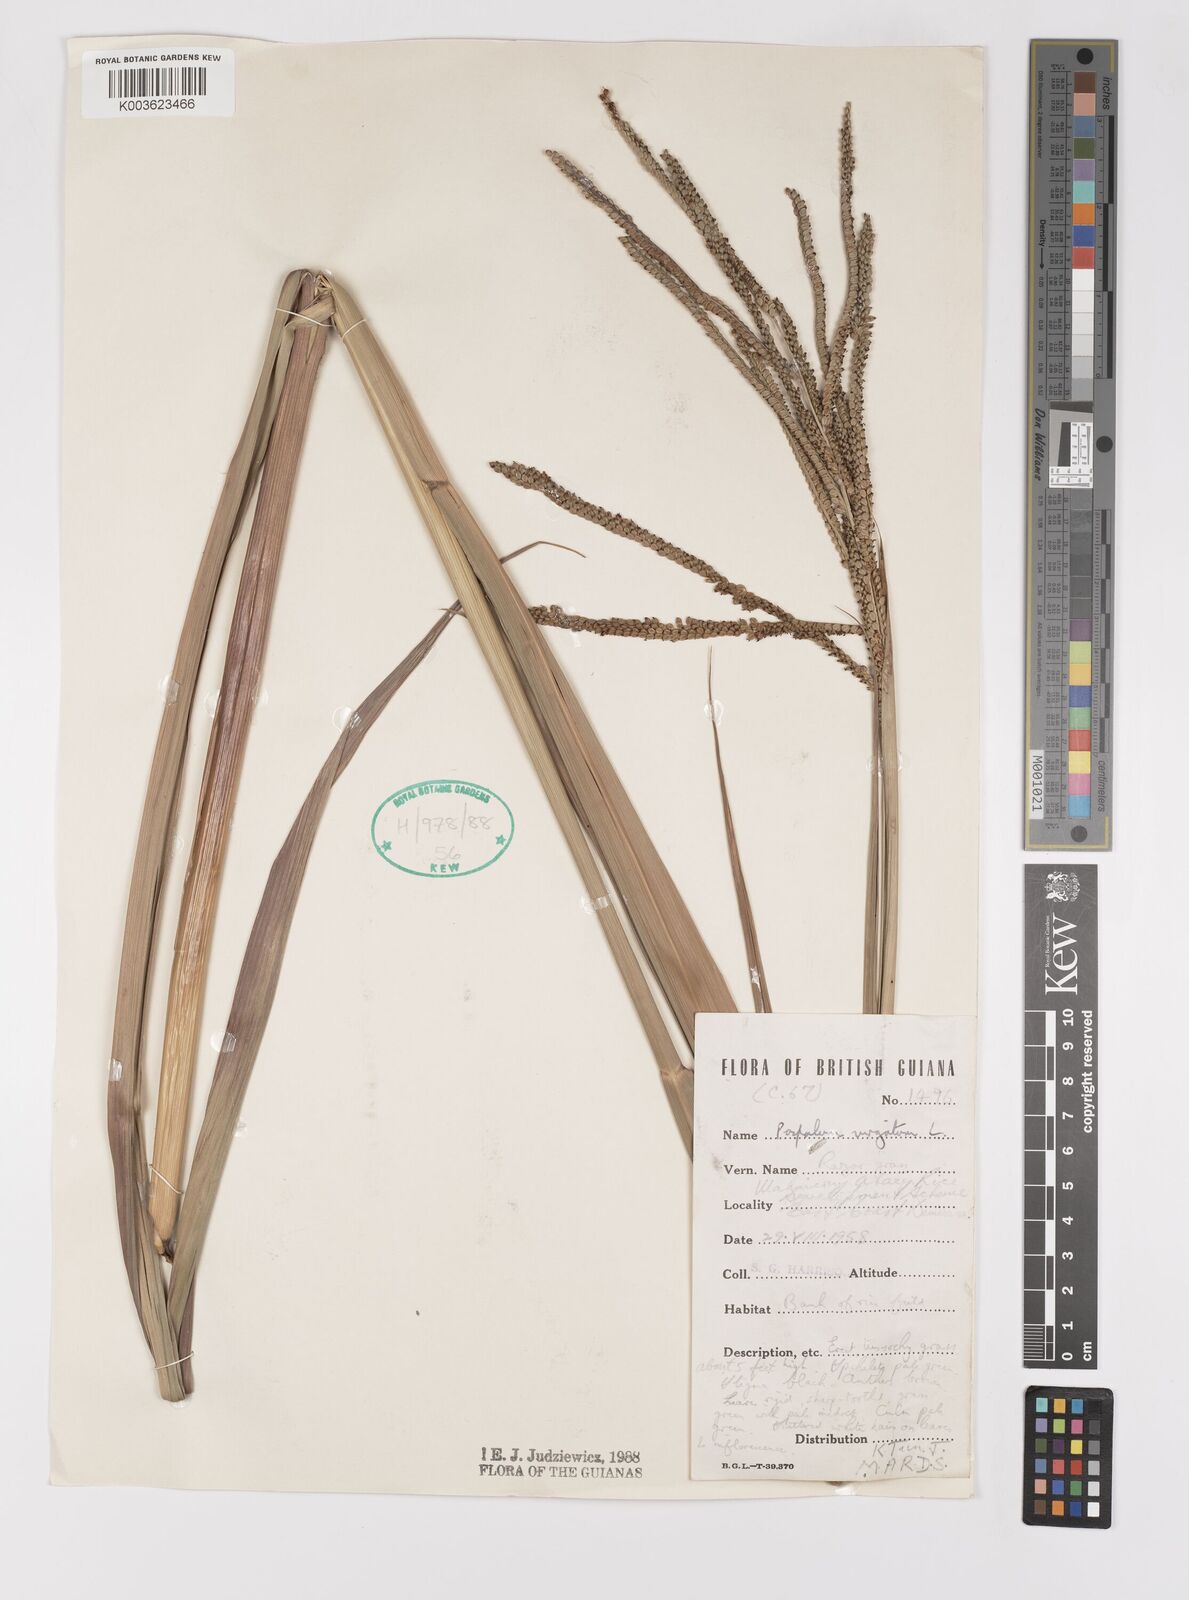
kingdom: Plantae
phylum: Tracheophyta
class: Liliopsida
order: Poales
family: Poaceae
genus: Paspalum
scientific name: Paspalum virgatum
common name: Talquezal
